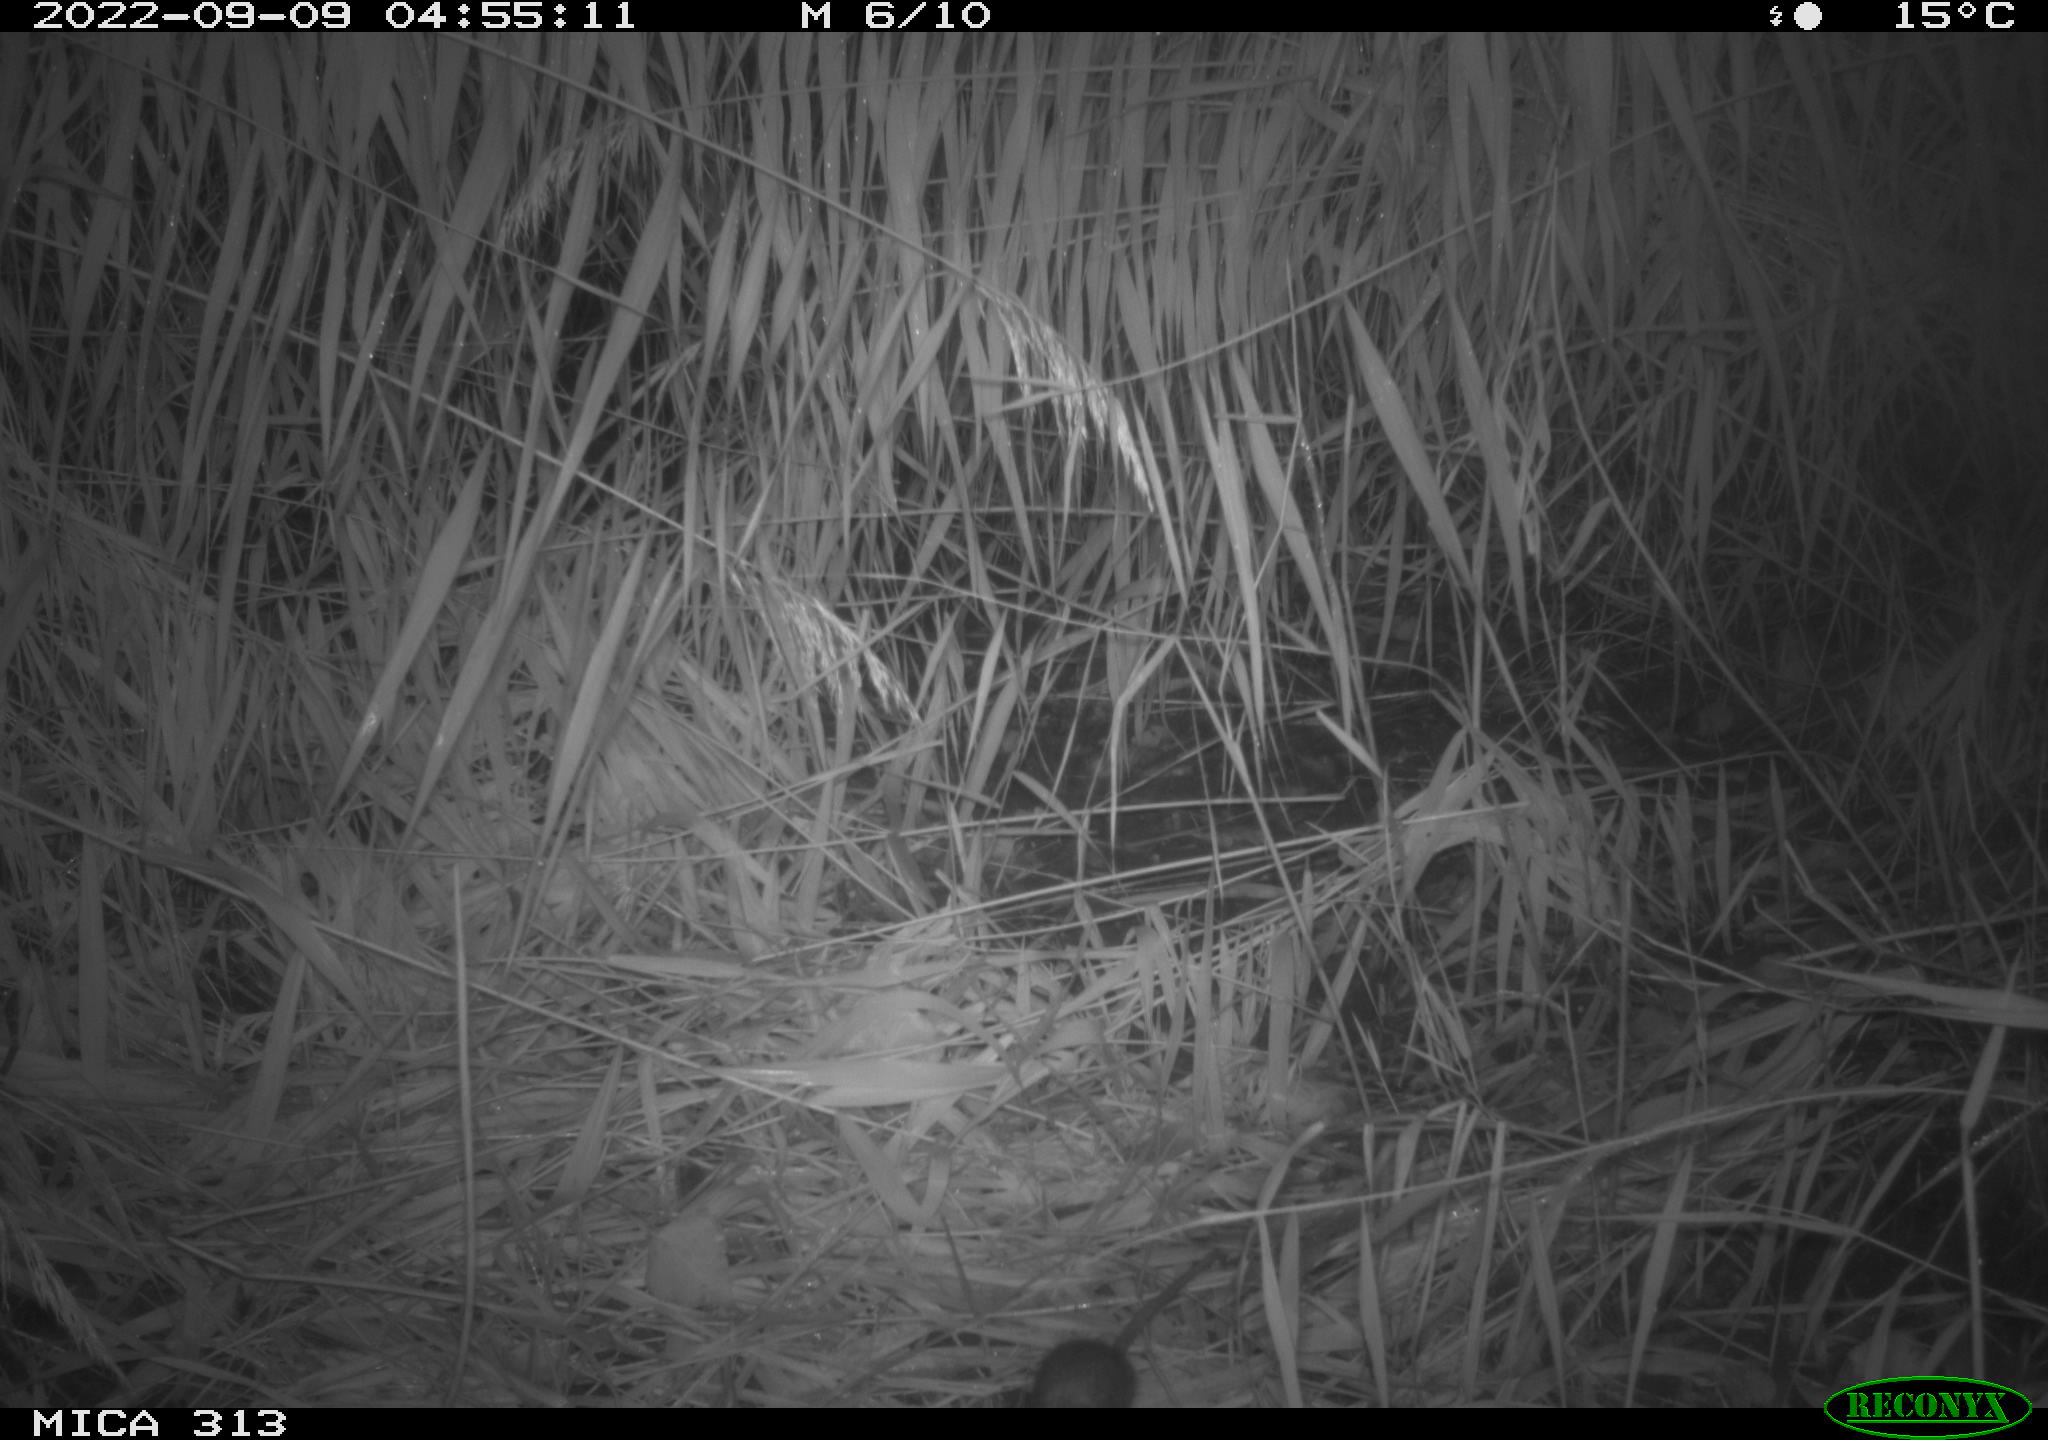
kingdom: Animalia
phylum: Chordata
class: Mammalia
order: Rodentia
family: Muridae
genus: Apodemus
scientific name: Apodemus sylvaticus
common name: Wood mouse
